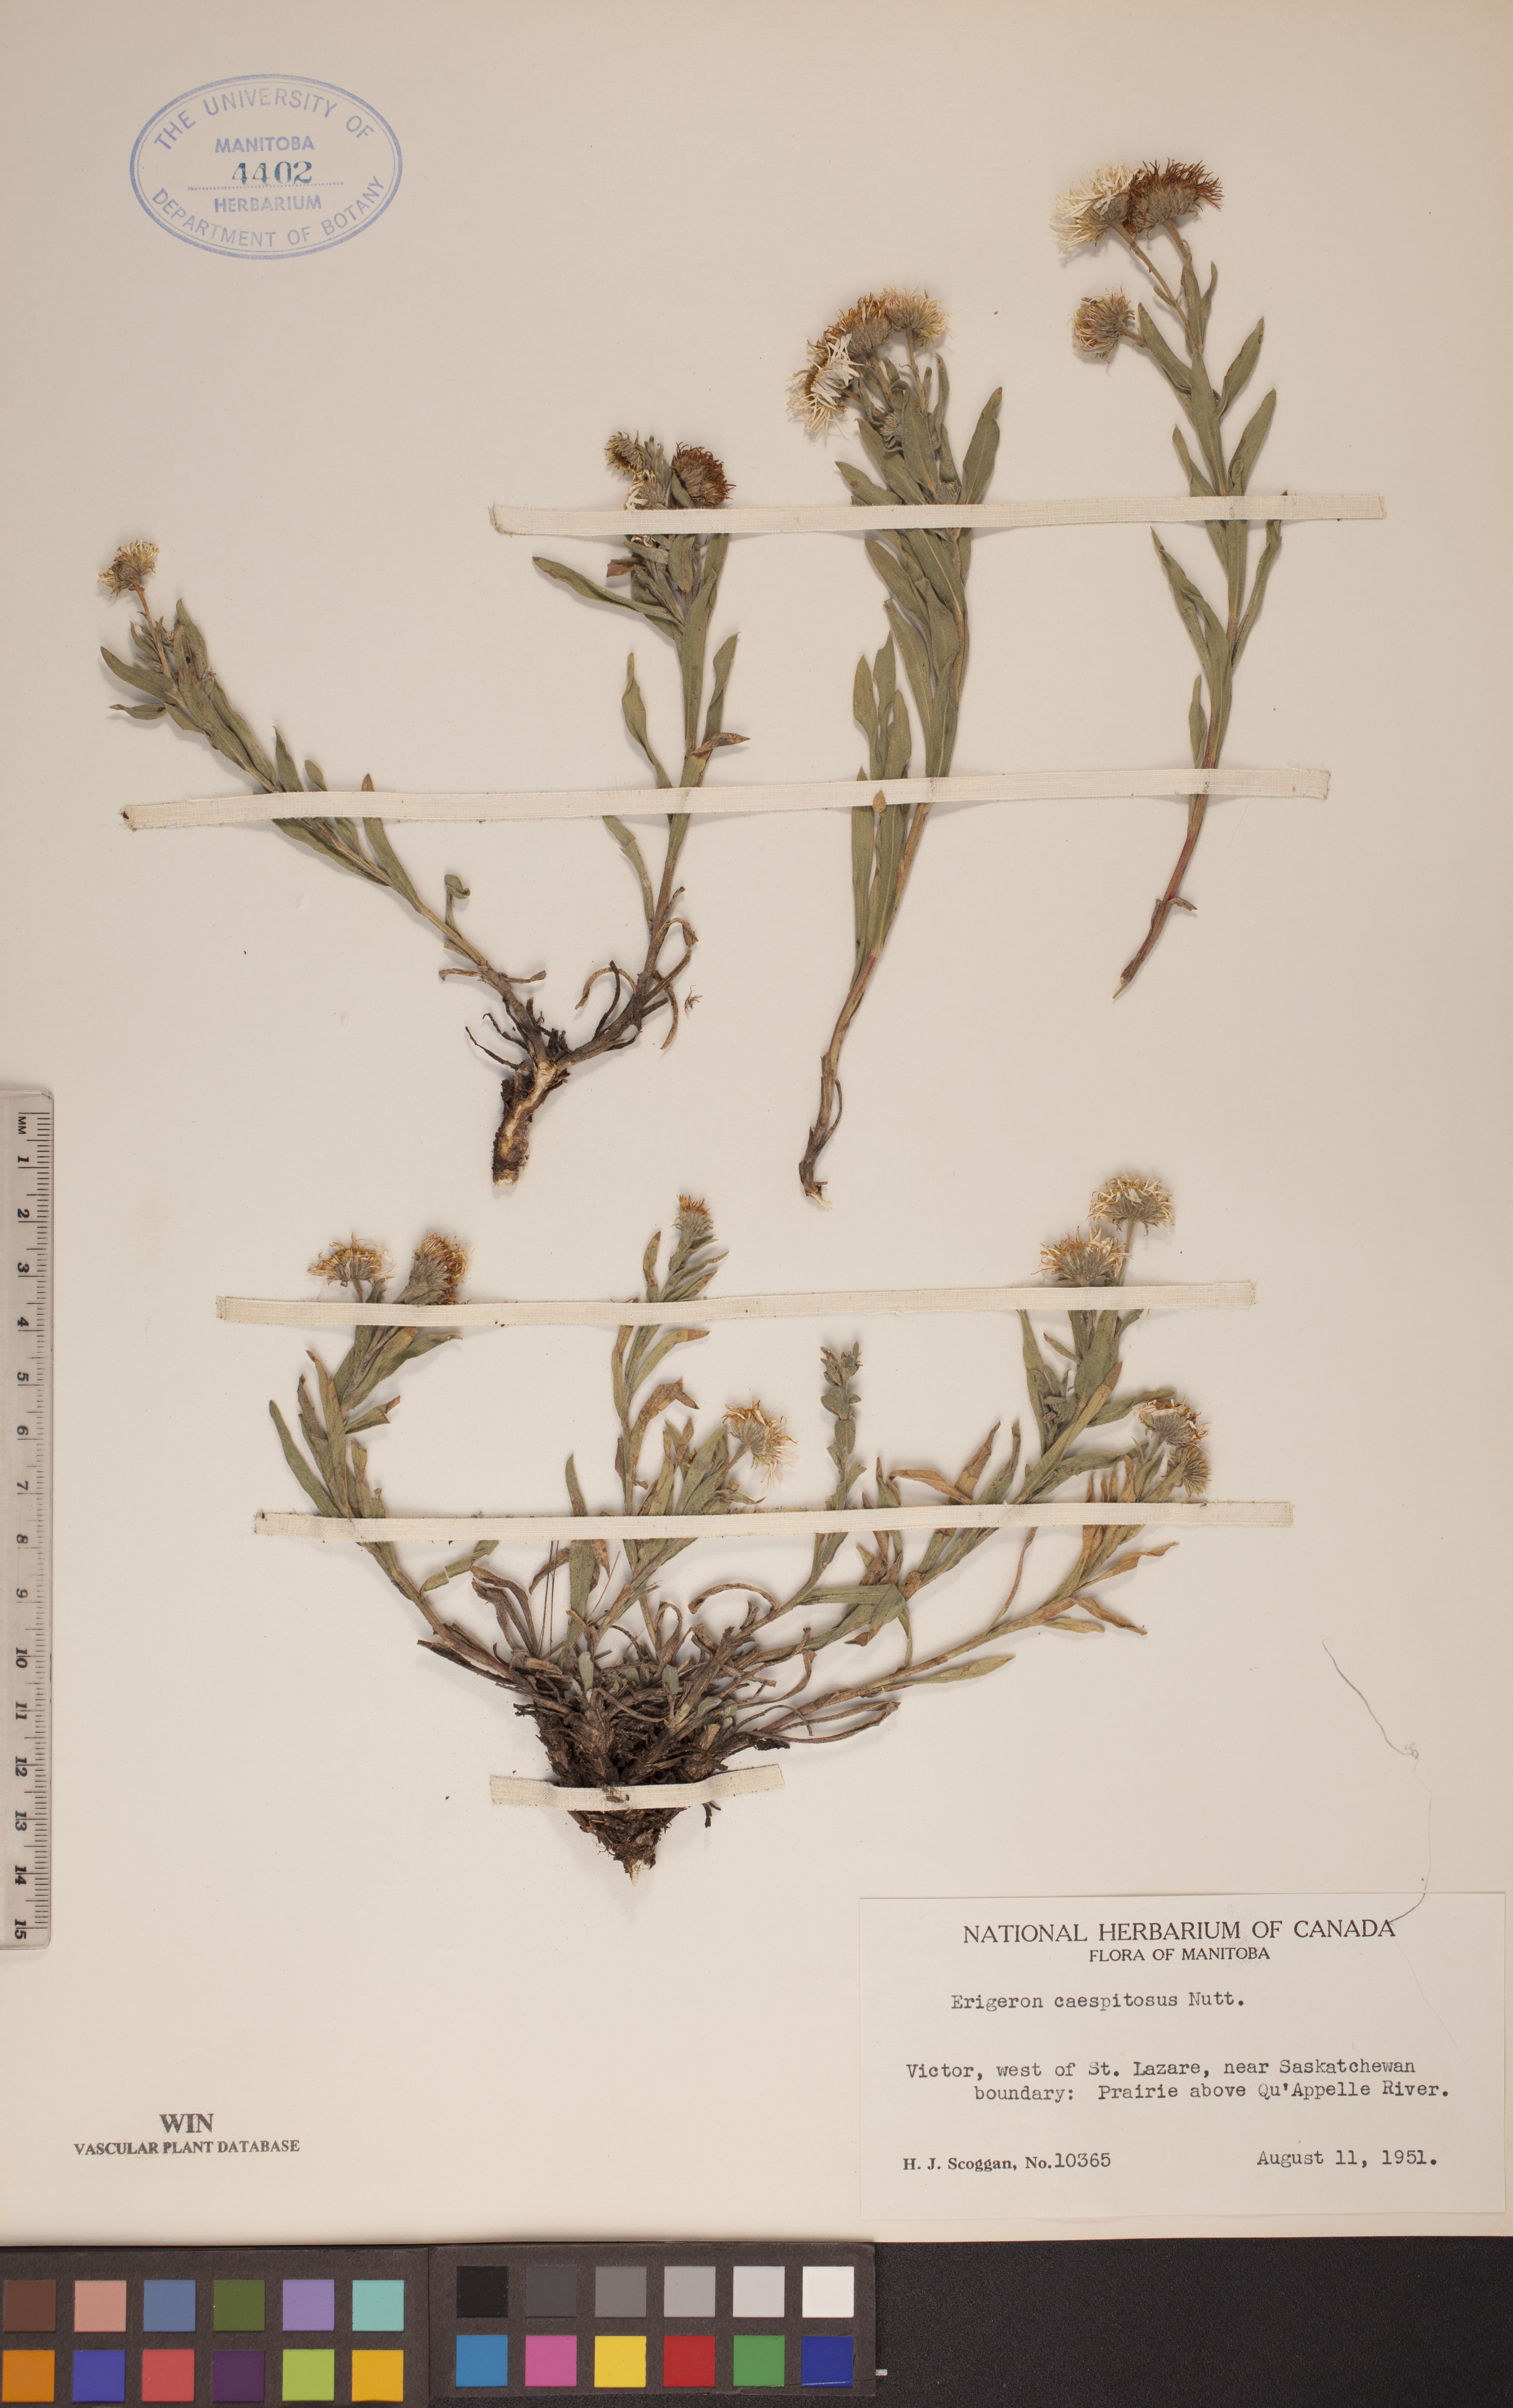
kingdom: Plantae
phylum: Tracheophyta
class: Magnoliopsida
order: Asterales
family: Asteraceae
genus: Erigeron
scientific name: Erigeron caespitosus
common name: Tufted fleabane
